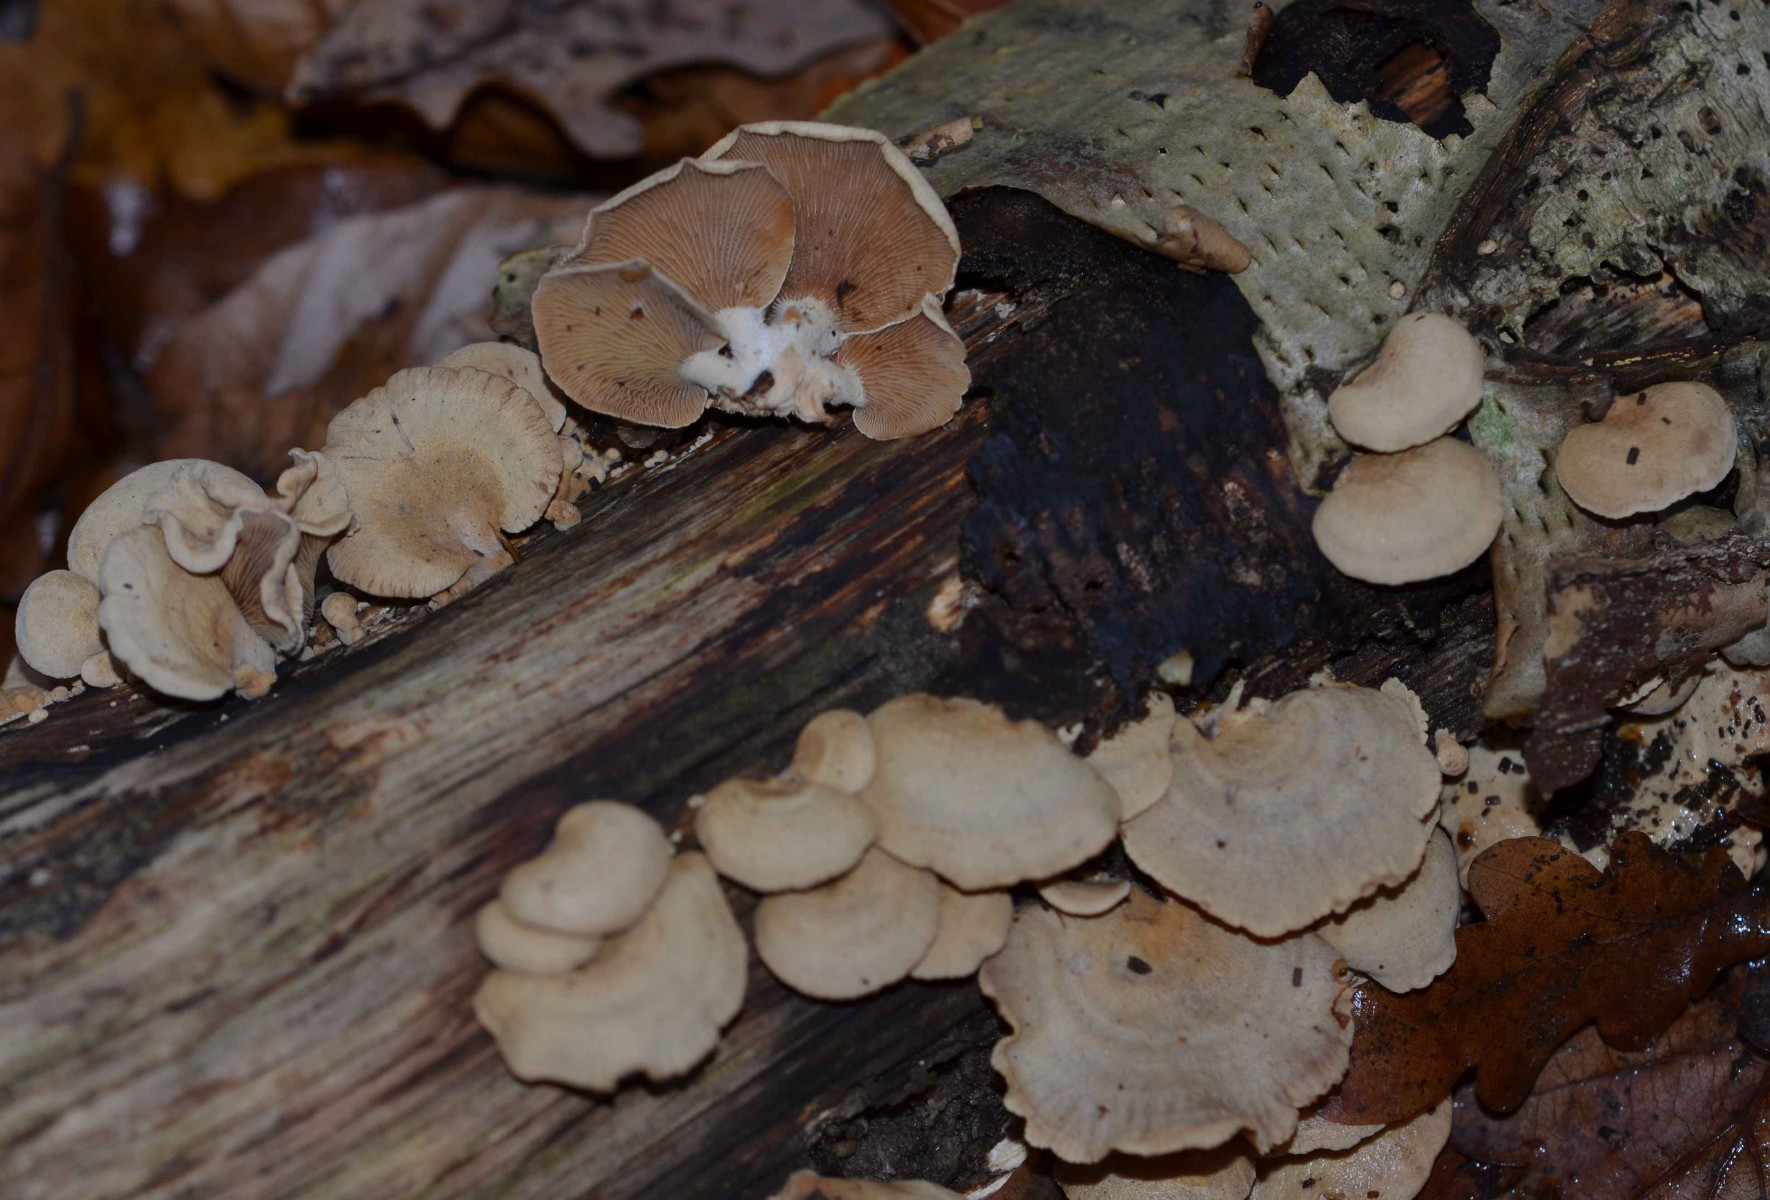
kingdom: Fungi
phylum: Basidiomycota
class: Agaricomycetes
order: Agaricales
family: Mycenaceae
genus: Panellus
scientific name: Panellus stipticus
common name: kliddet epaulethat
